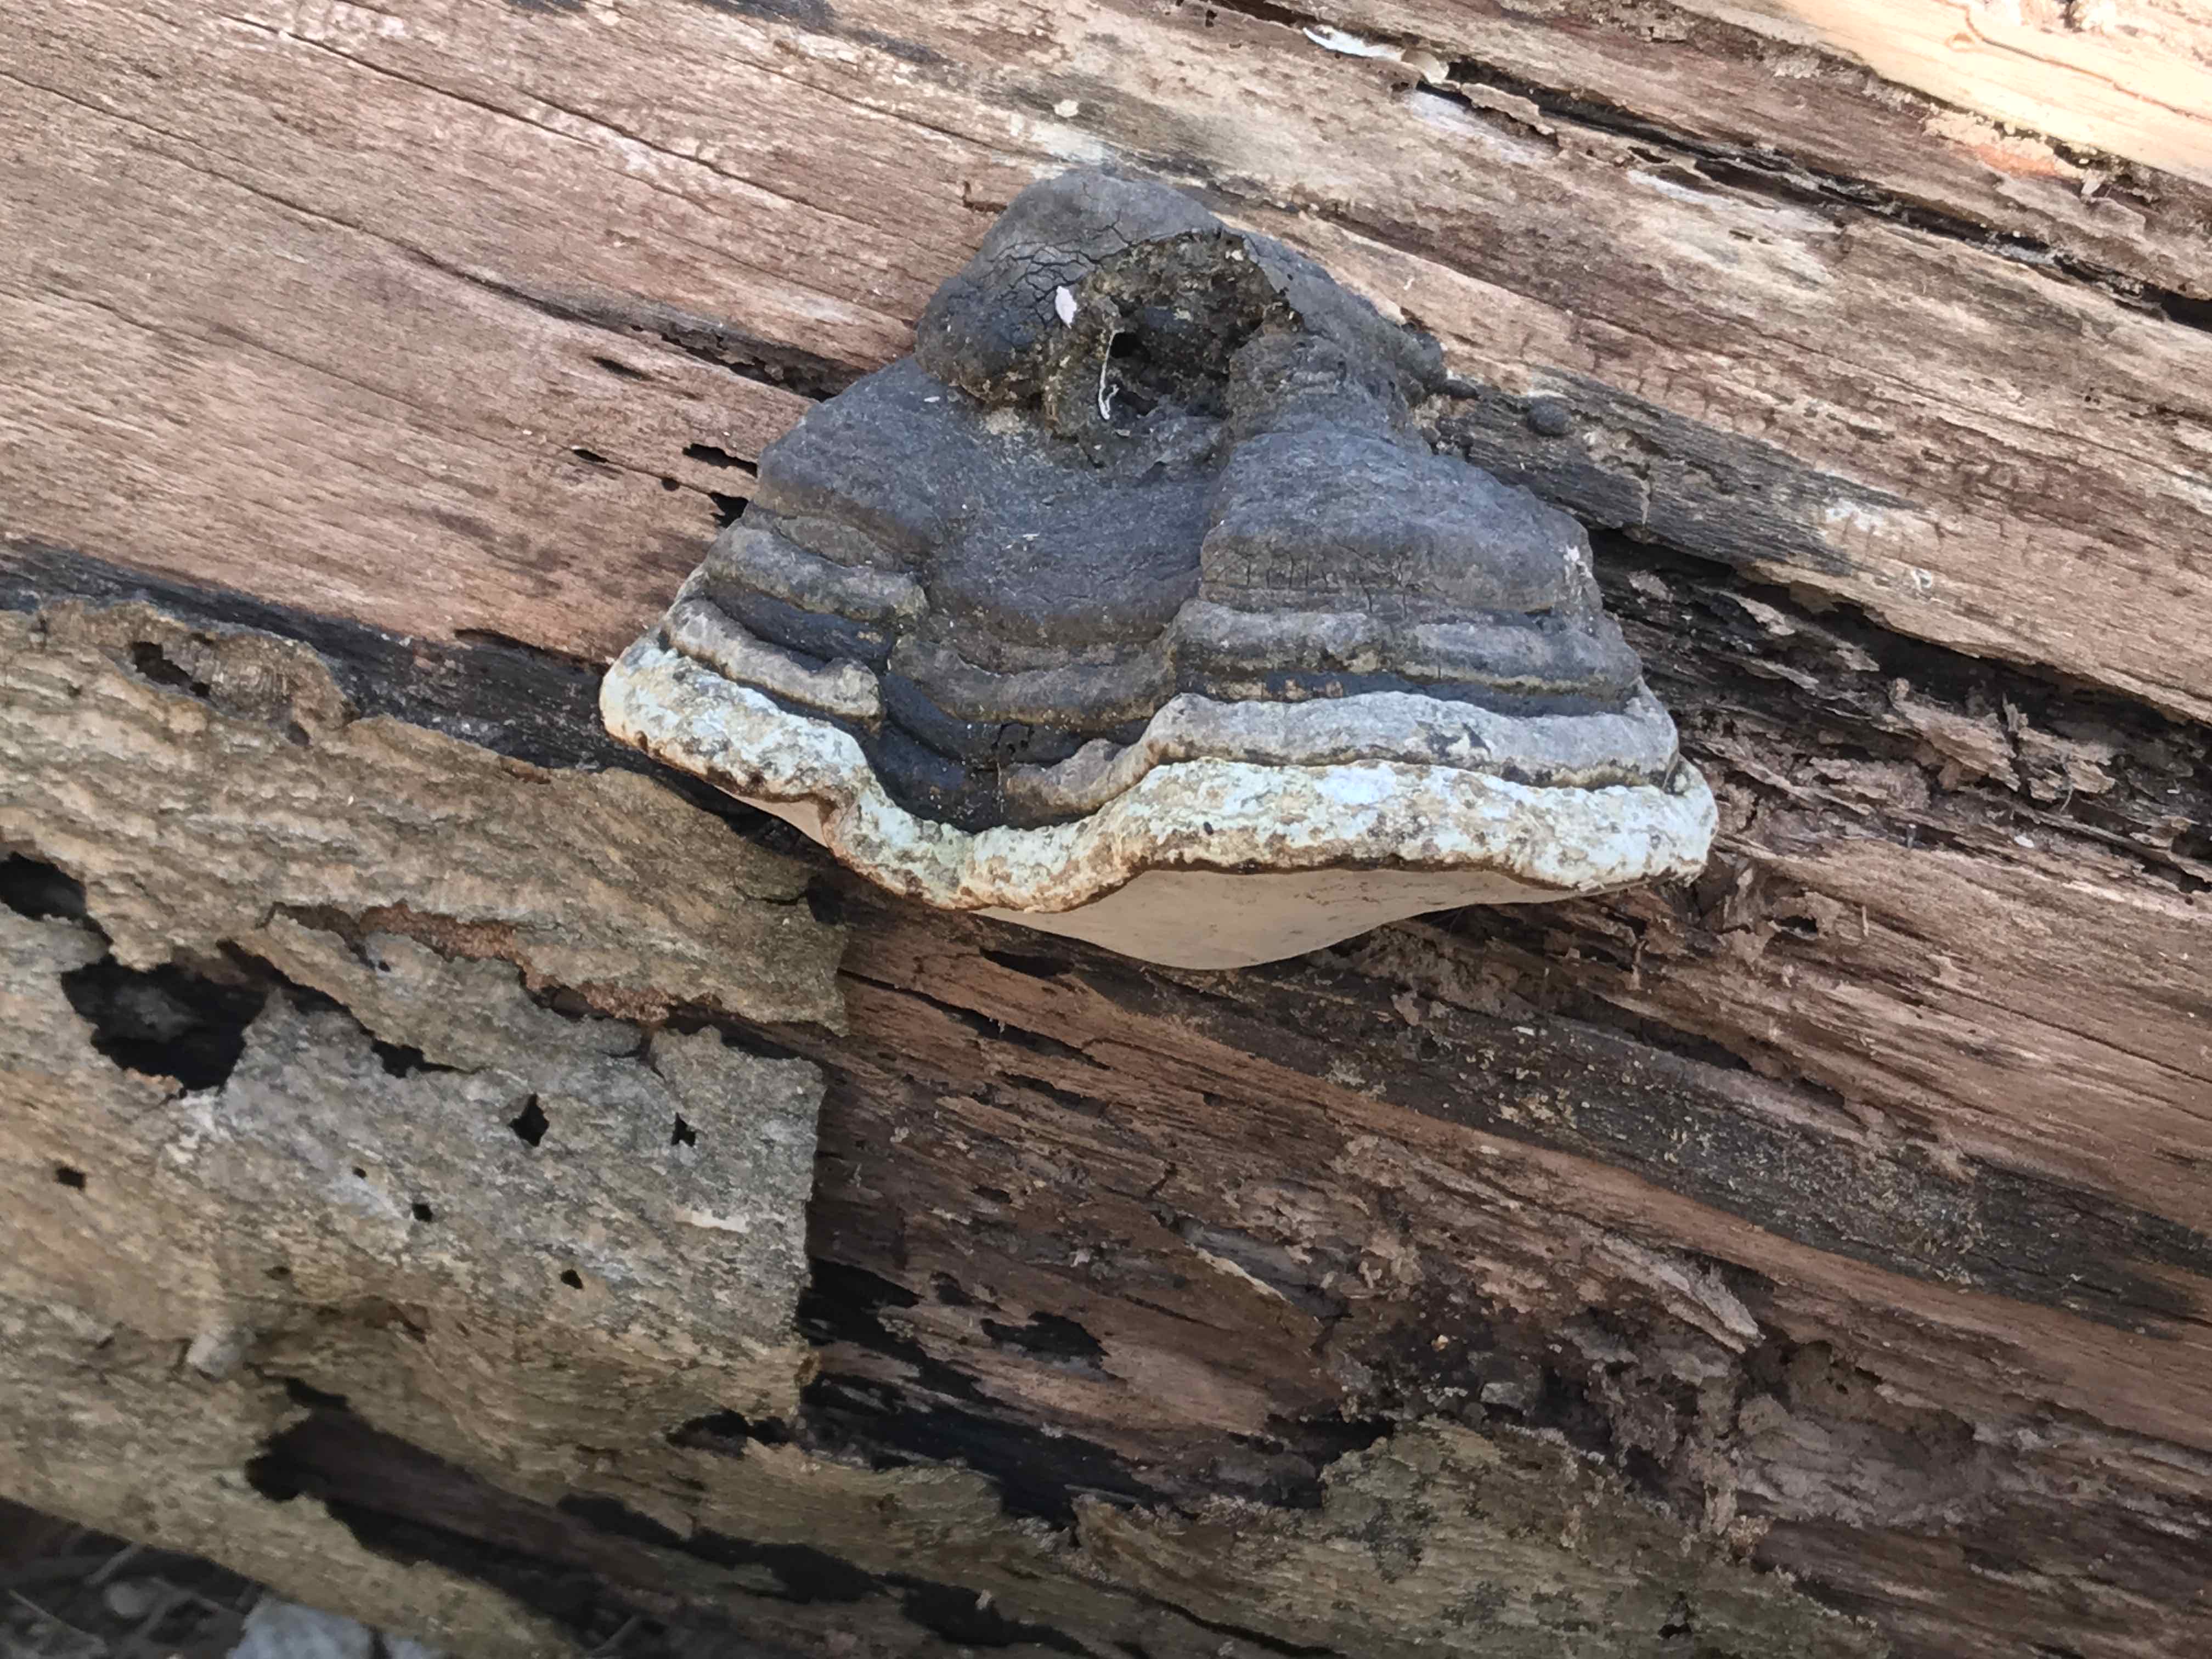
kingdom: Fungi
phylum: Basidiomycota
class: Agaricomycetes
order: Polyporales
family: Polyporaceae
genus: Fomes
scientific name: Fomes fomentarius
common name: tøndersvamp
